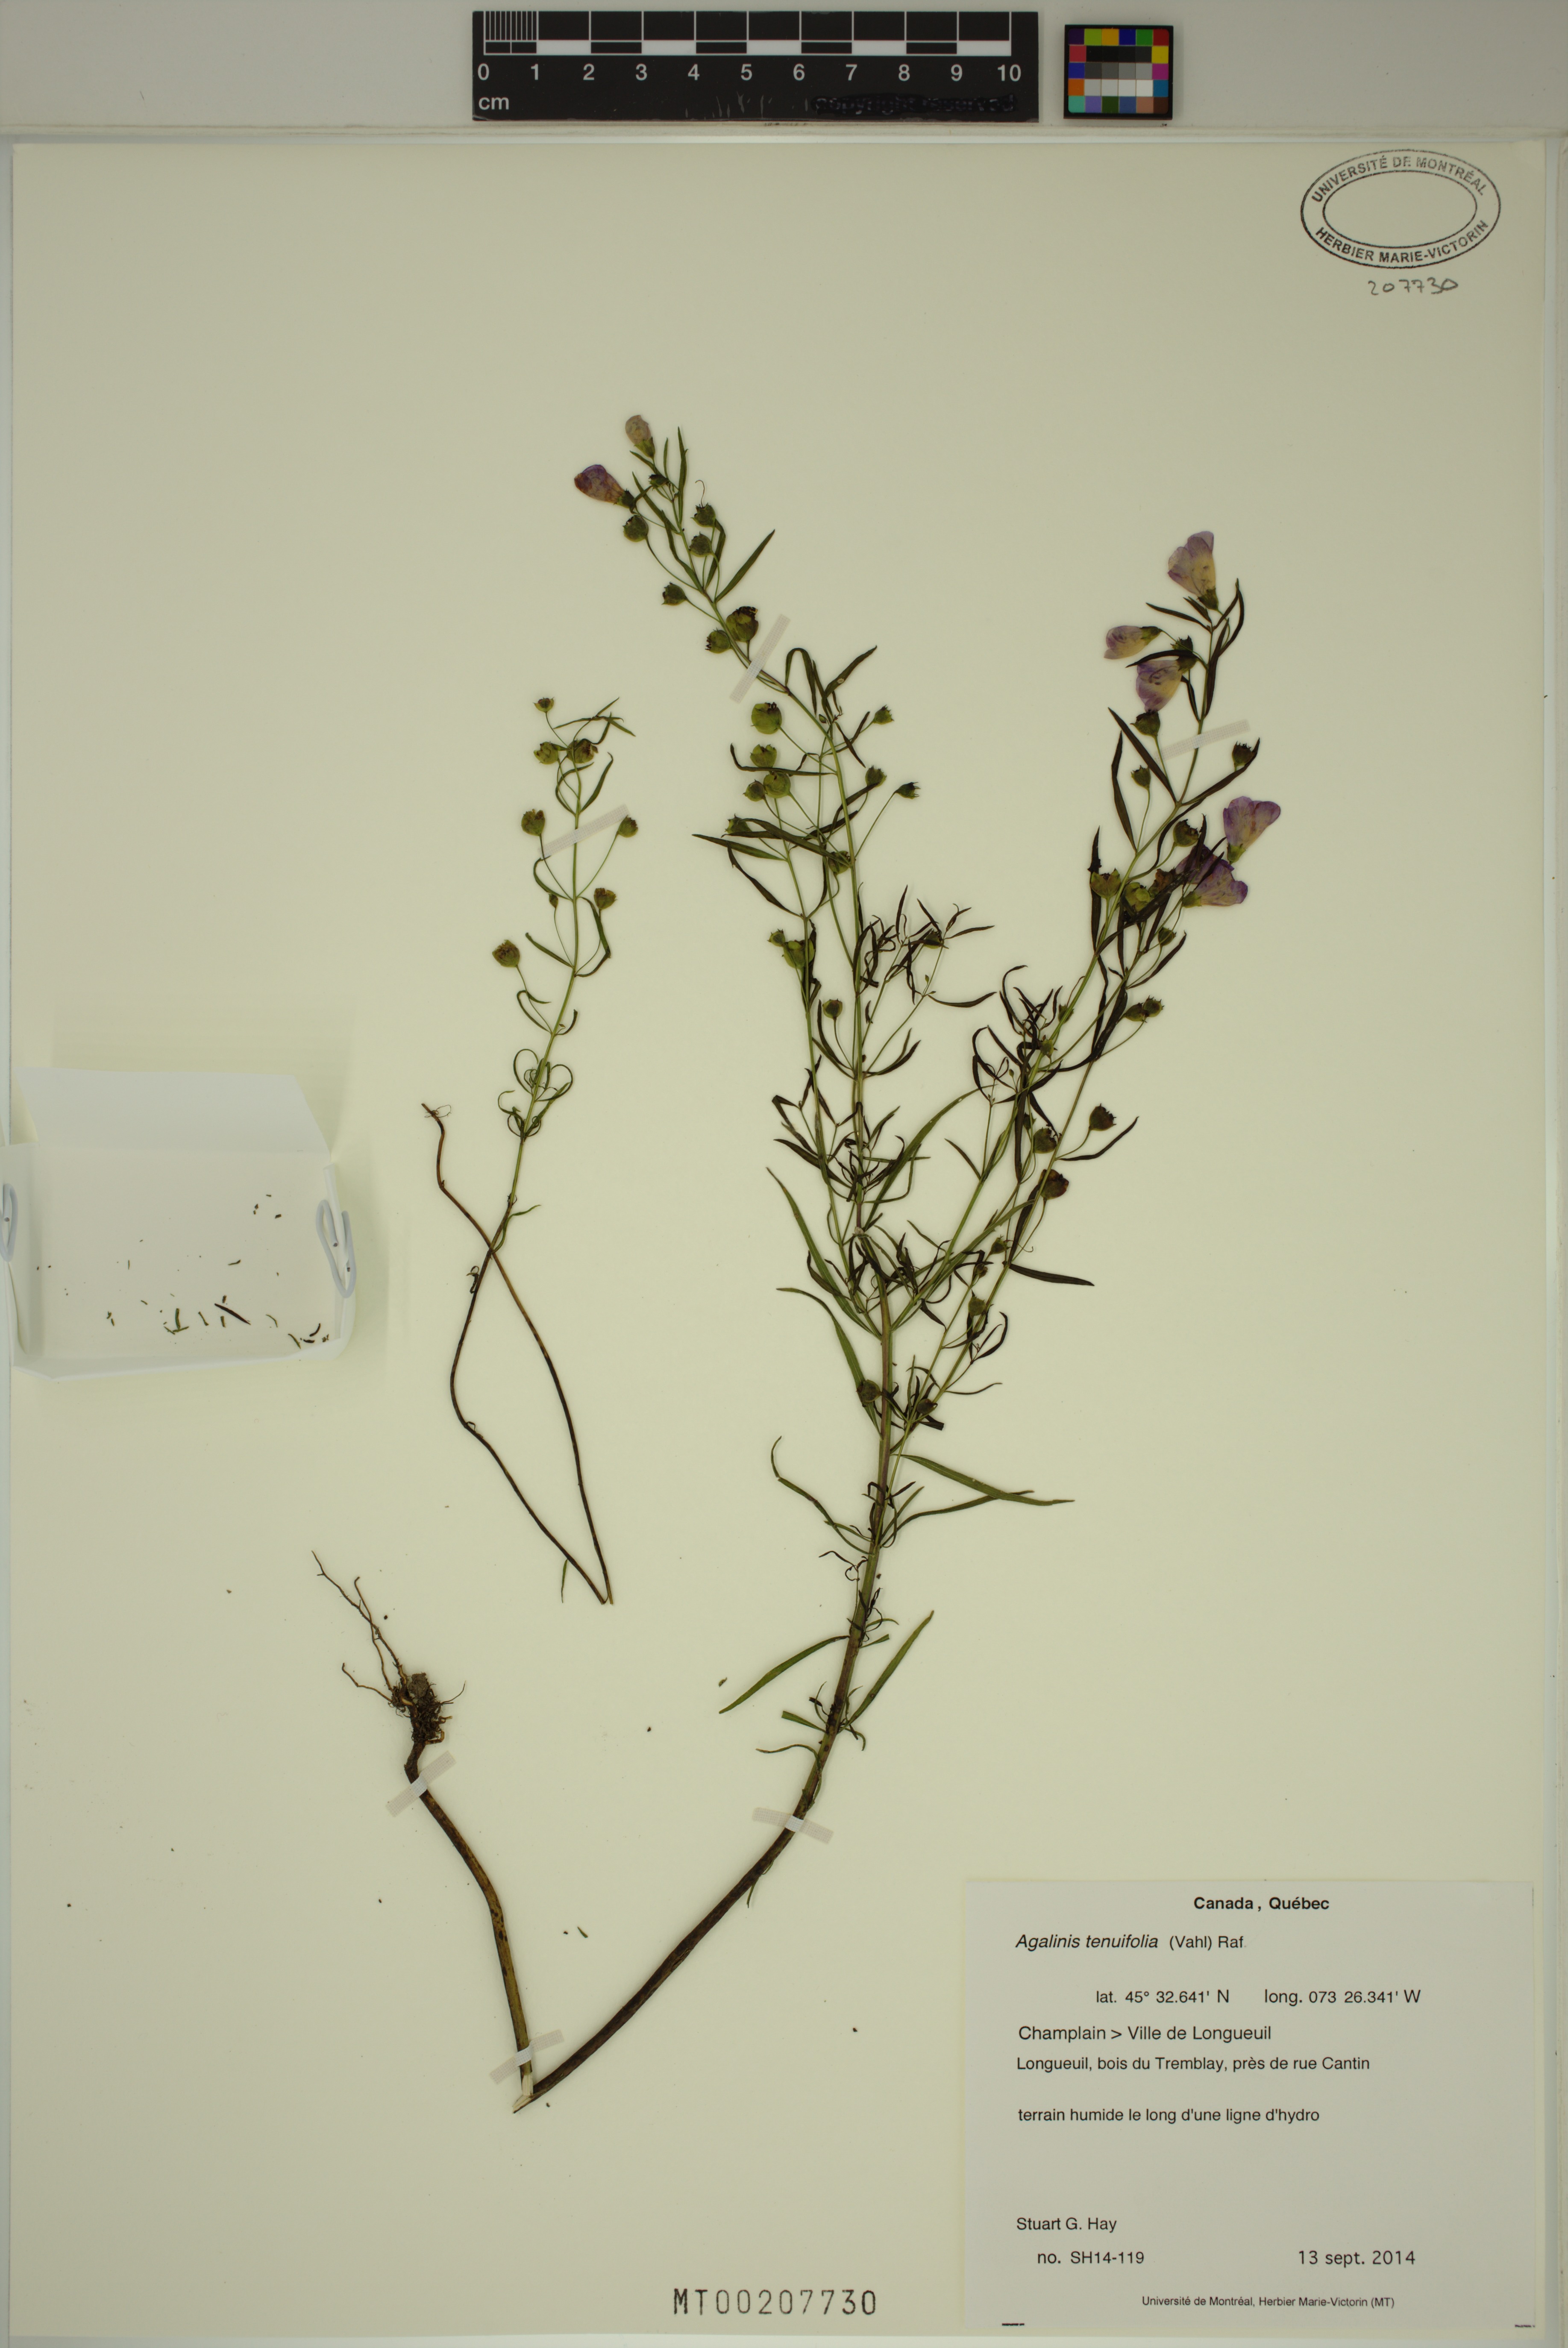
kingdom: Plantae
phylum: Tracheophyta
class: Magnoliopsida
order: Lamiales
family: Orobanchaceae
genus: Agalinis
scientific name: Agalinis tenuifolia
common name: Slender agalinis
